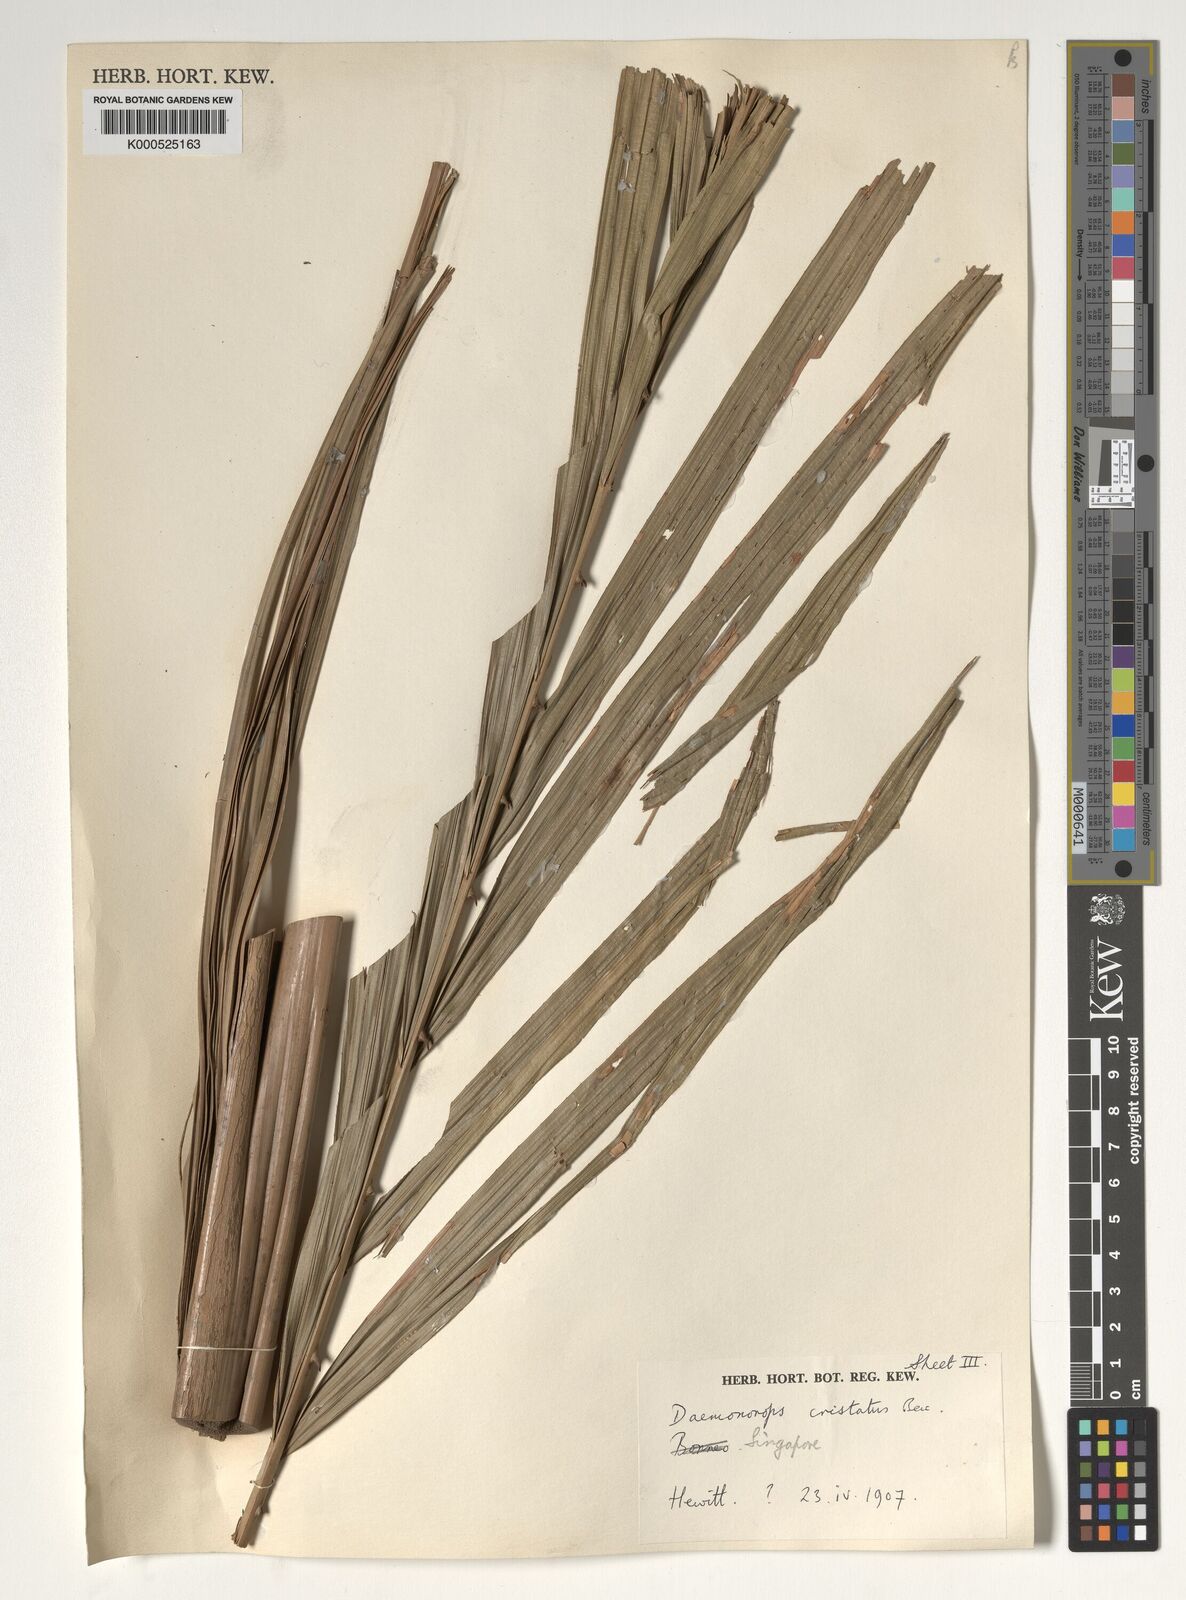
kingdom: Plantae
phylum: Tracheophyta
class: Liliopsida
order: Arecales
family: Arecaceae
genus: Calamus
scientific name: Calamus cristatus
